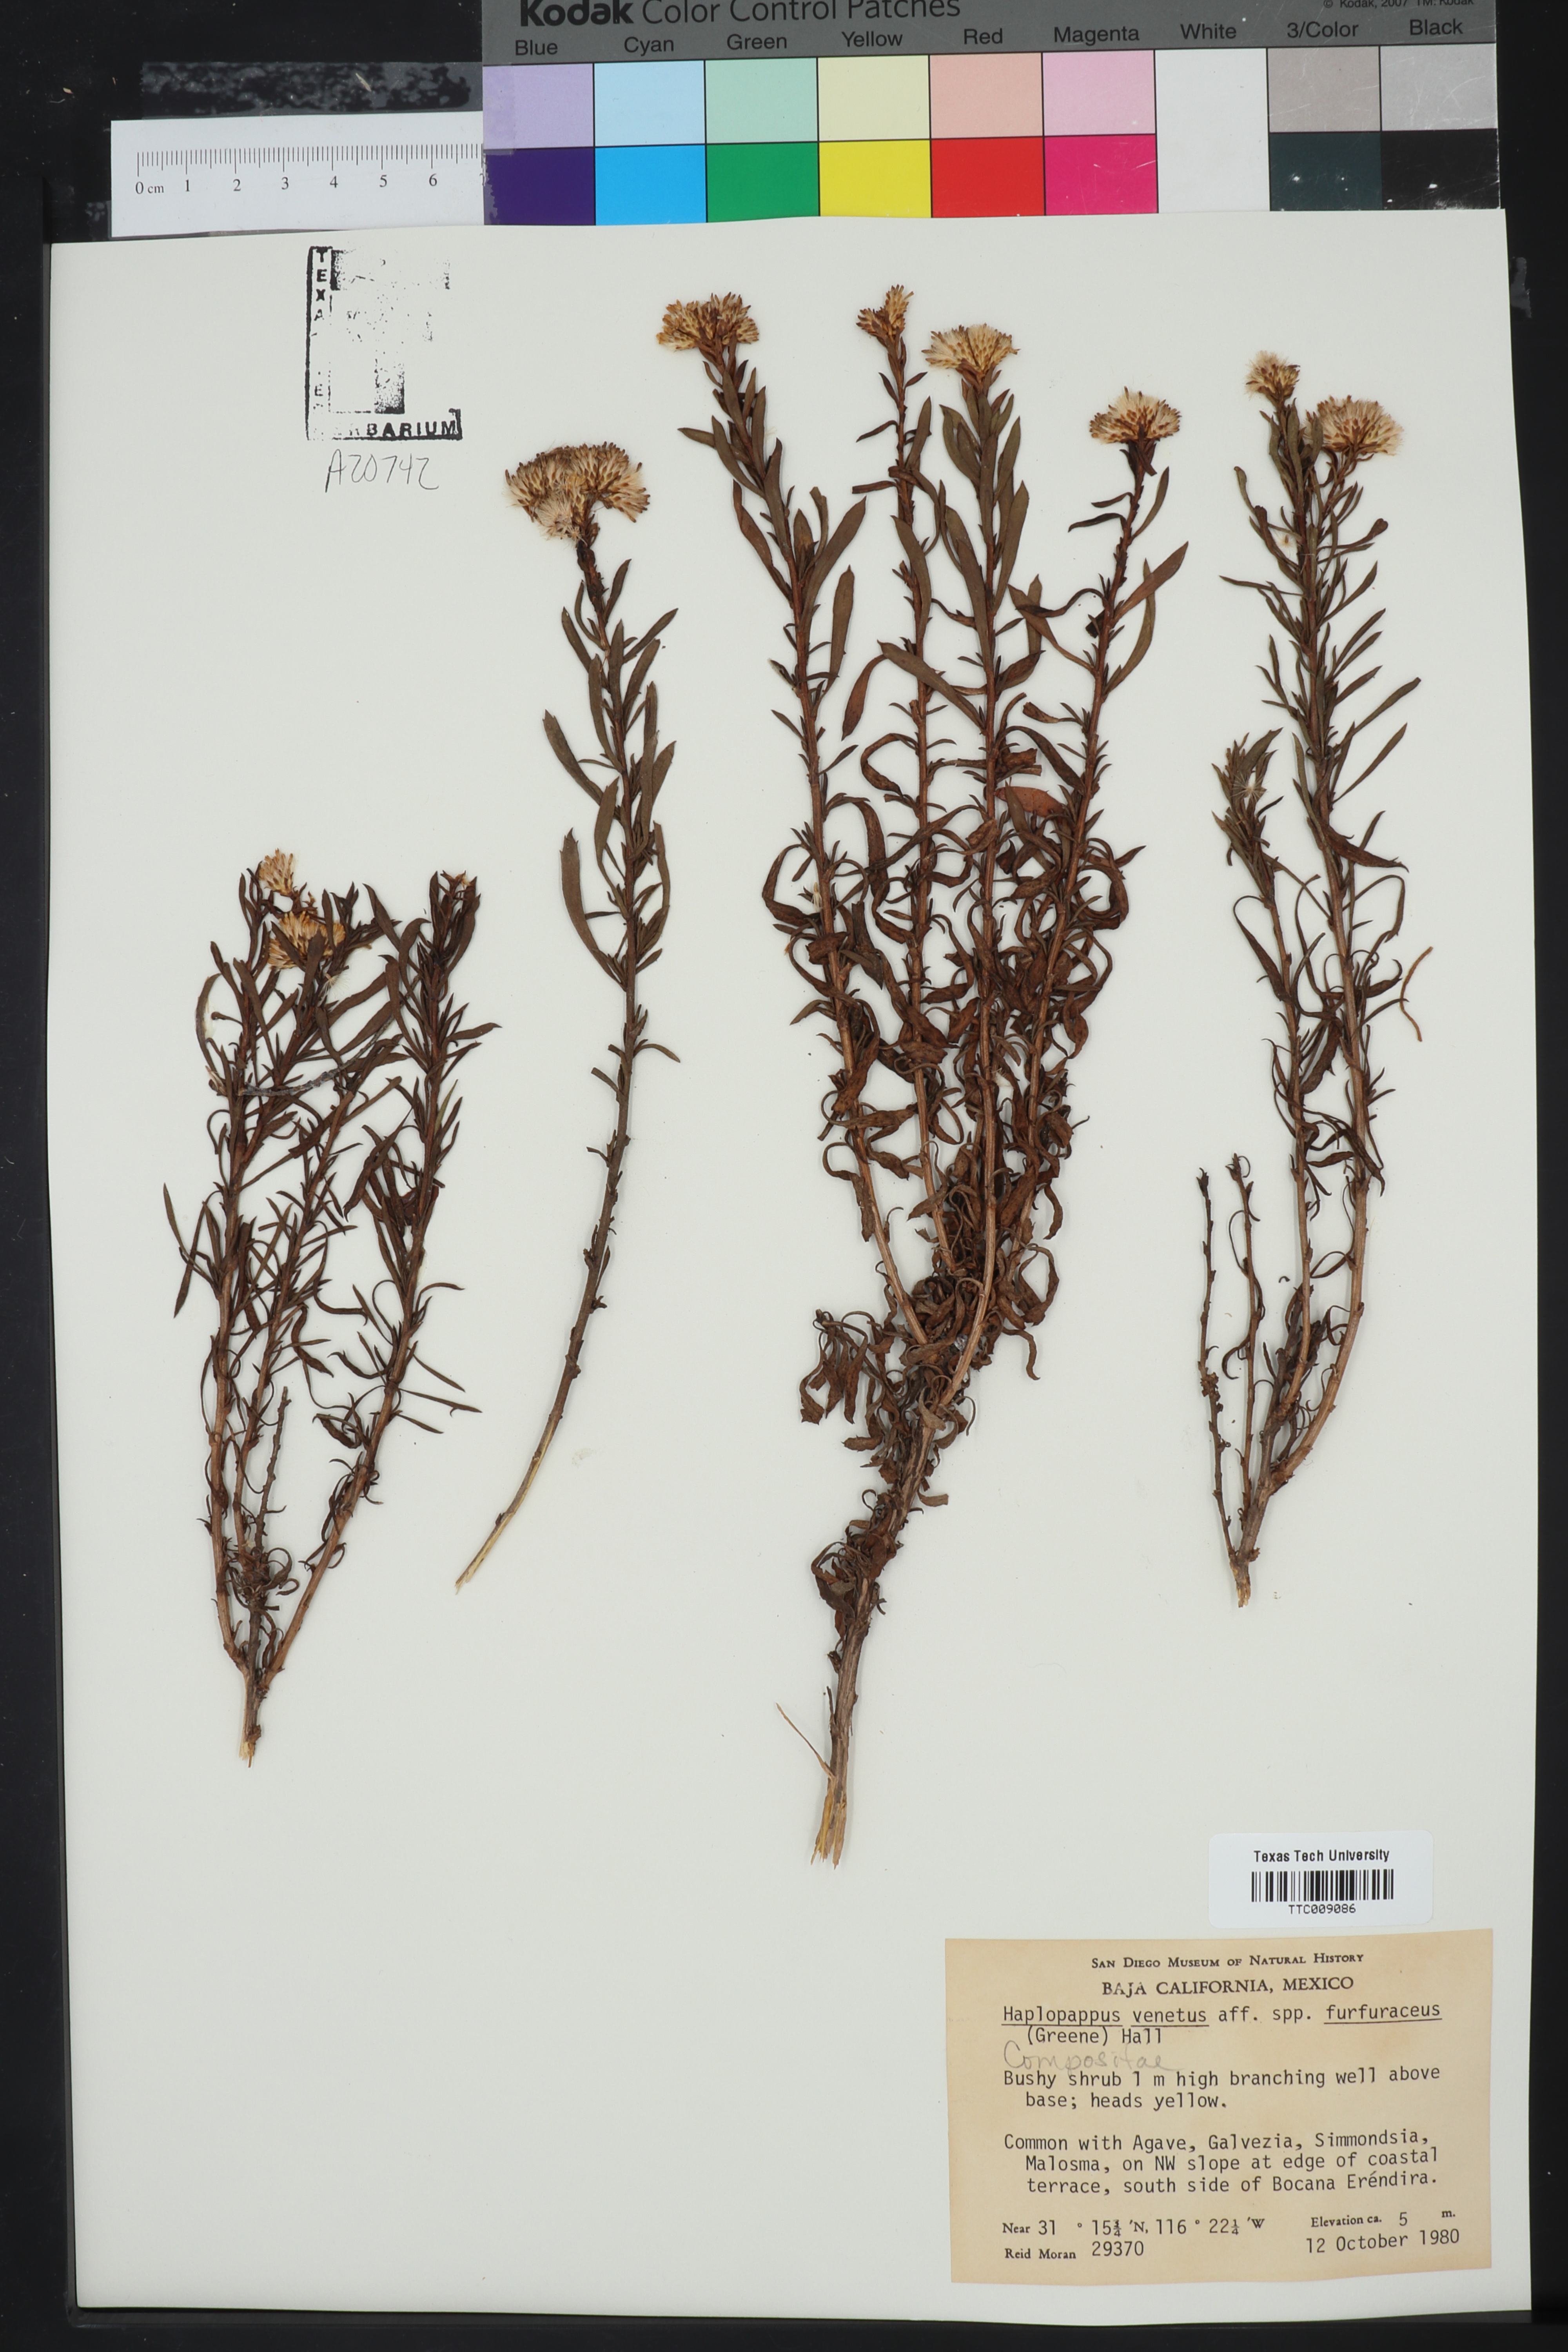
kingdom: Plantae
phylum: Tracheophyta
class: Magnoliopsida
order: Asterales
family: Asteraceae
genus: Isocoma
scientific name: Isocoma veneta
